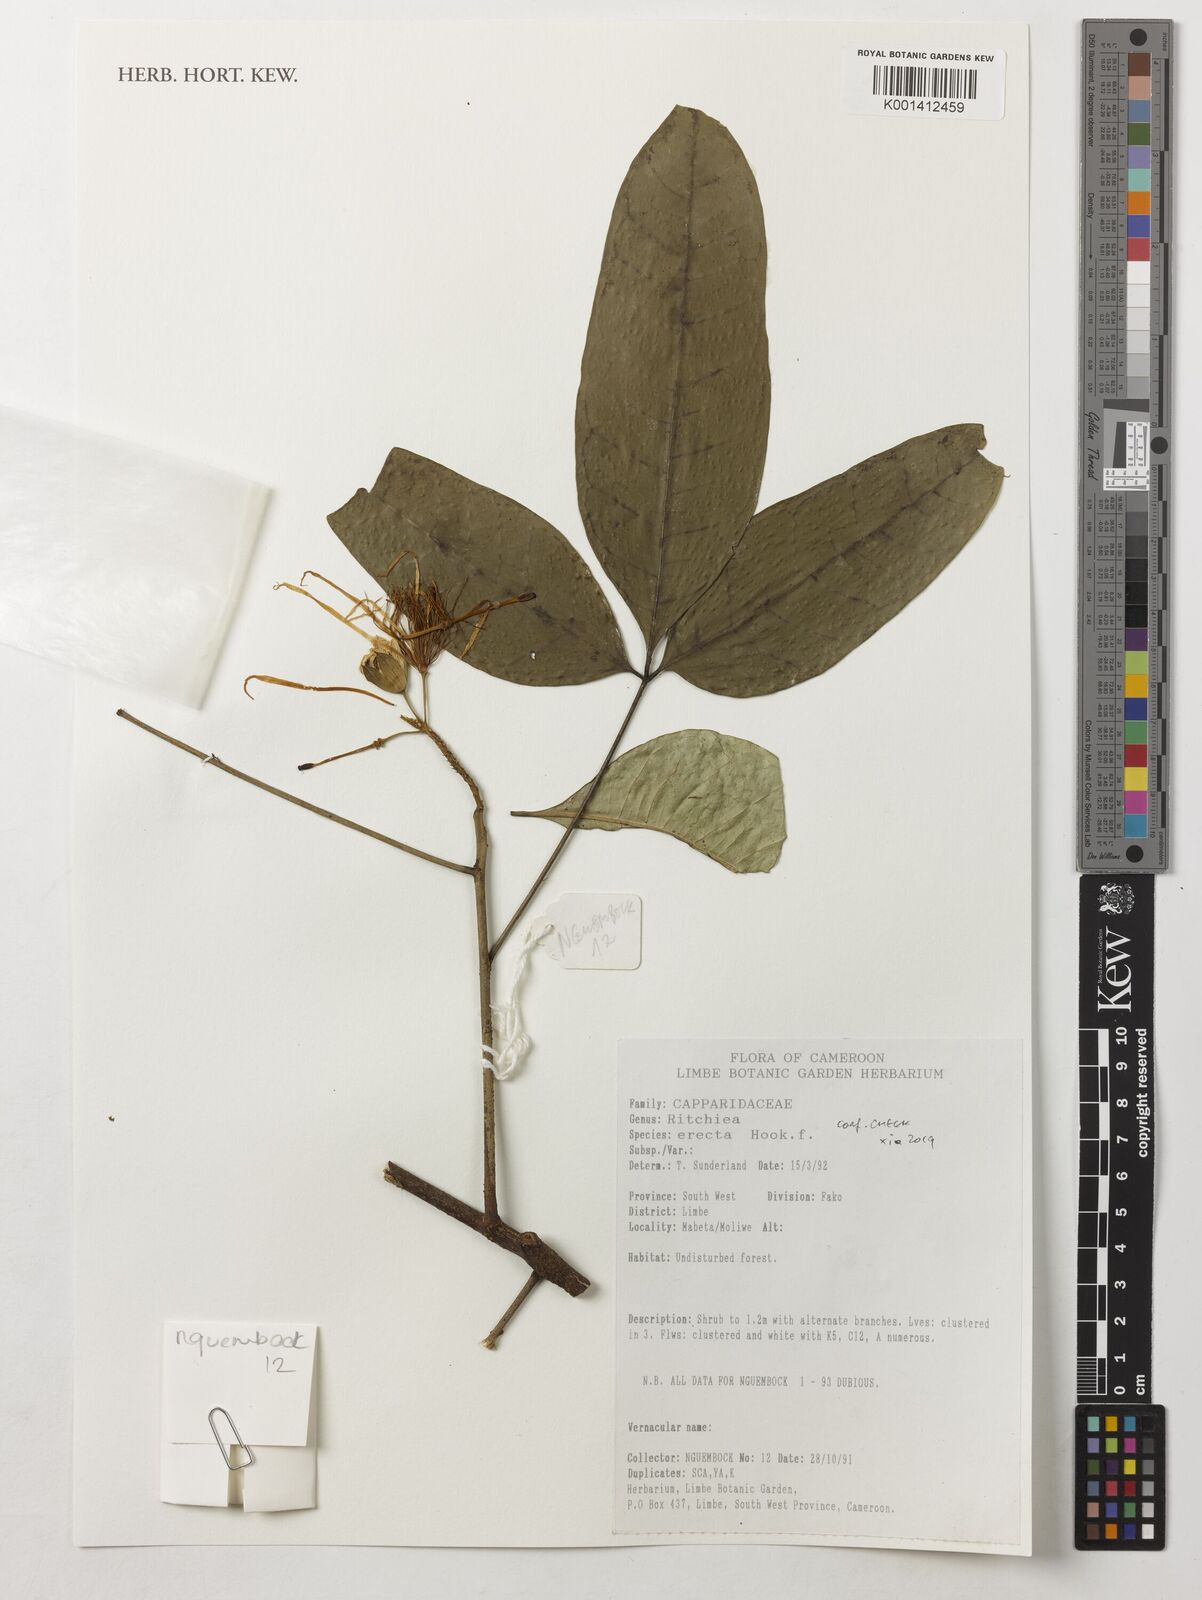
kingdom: Plantae
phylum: Tracheophyta
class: Magnoliopsida
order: Brassicales
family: Capparaceae
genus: Ritchiea
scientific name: Ritchiea erecta
